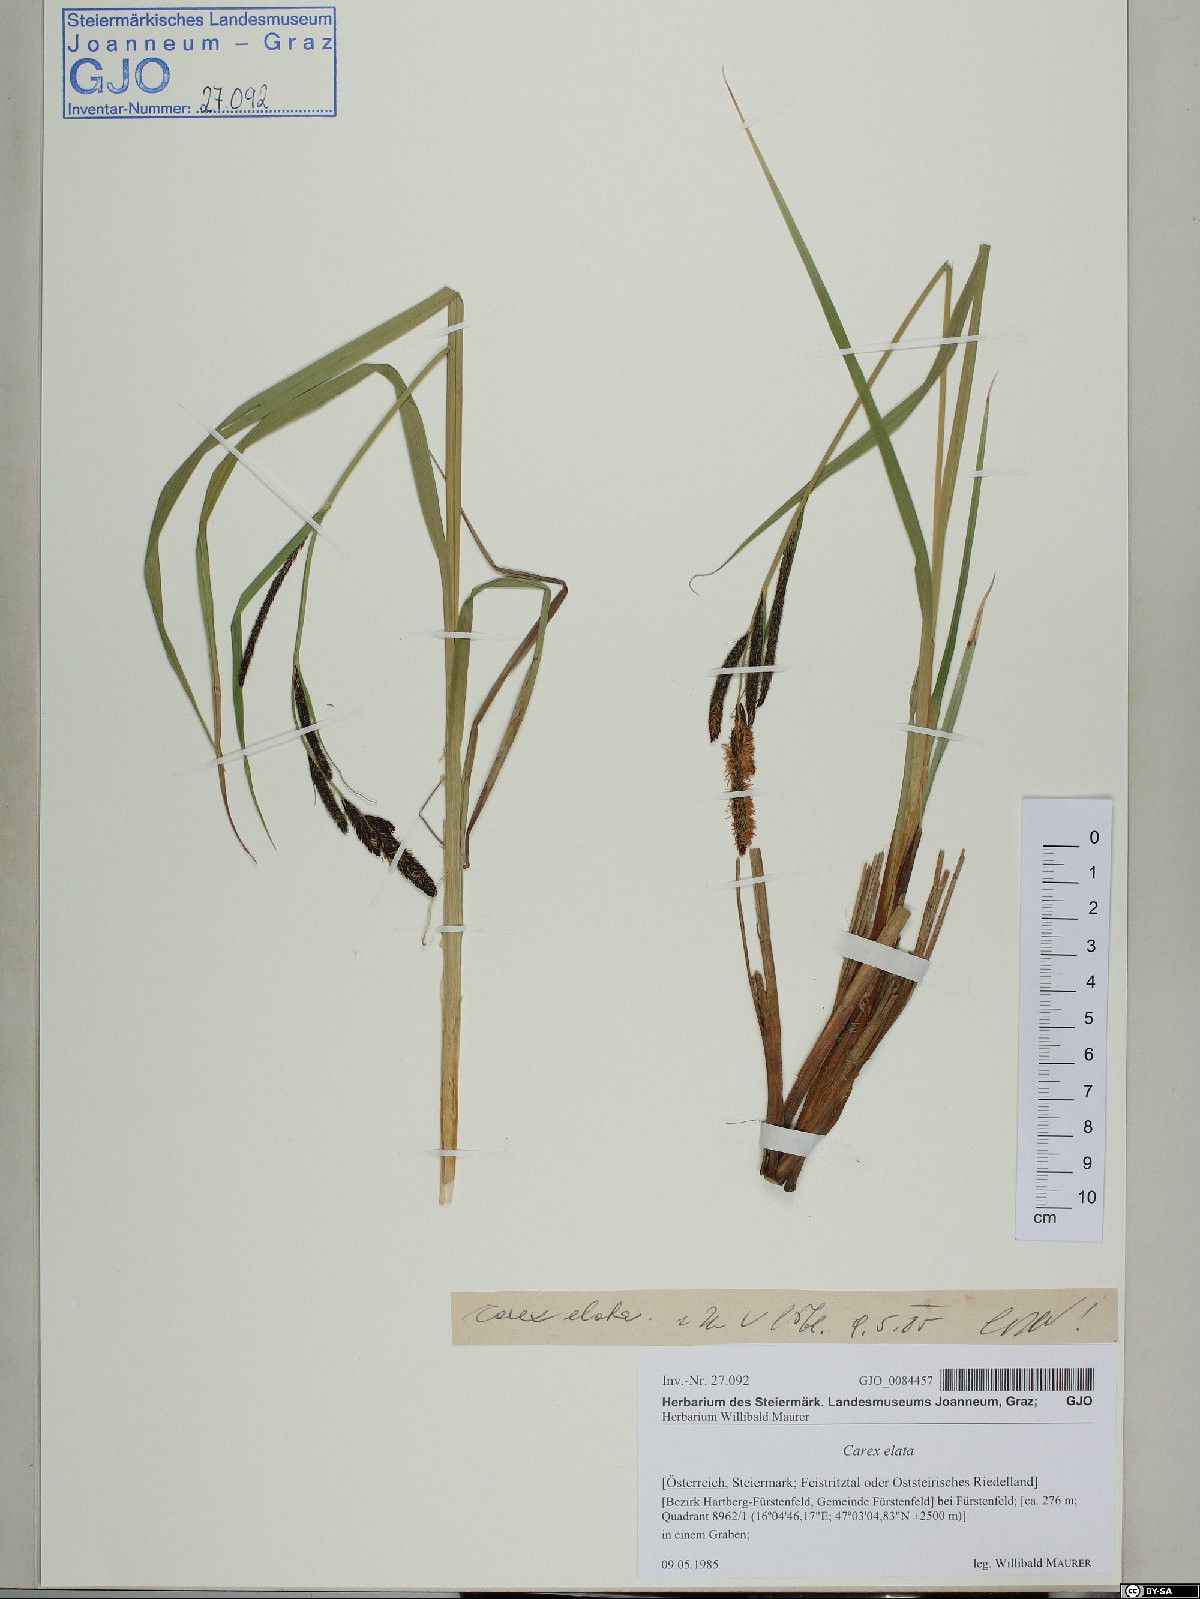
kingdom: Plantae
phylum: Tracheophyta
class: Liliopsida
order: Poales
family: Cyperaceae
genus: Carex
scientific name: Carex elata
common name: Tufted sedge
